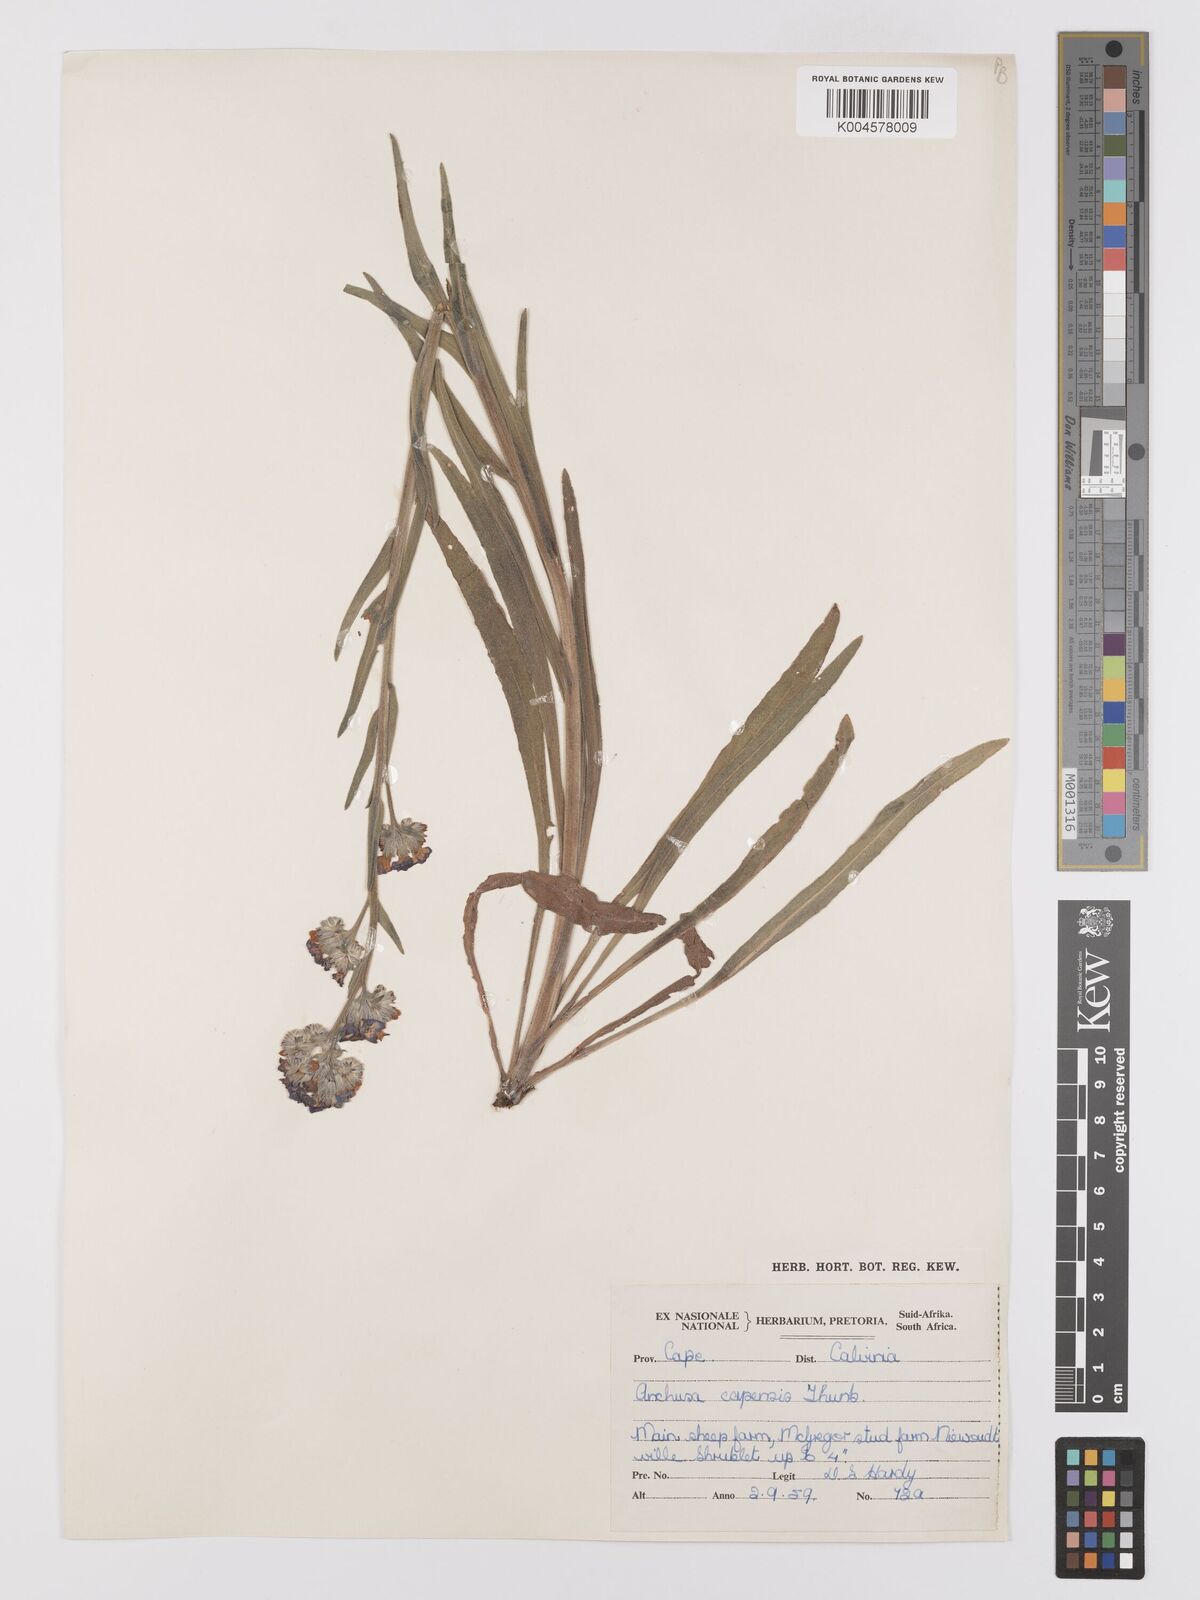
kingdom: Plantae
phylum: Tracheophyta
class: Magnoliopsida
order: Boraginales
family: Boraginaceae
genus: Anchusa
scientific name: Anchusa capensis
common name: Cape bugloss
